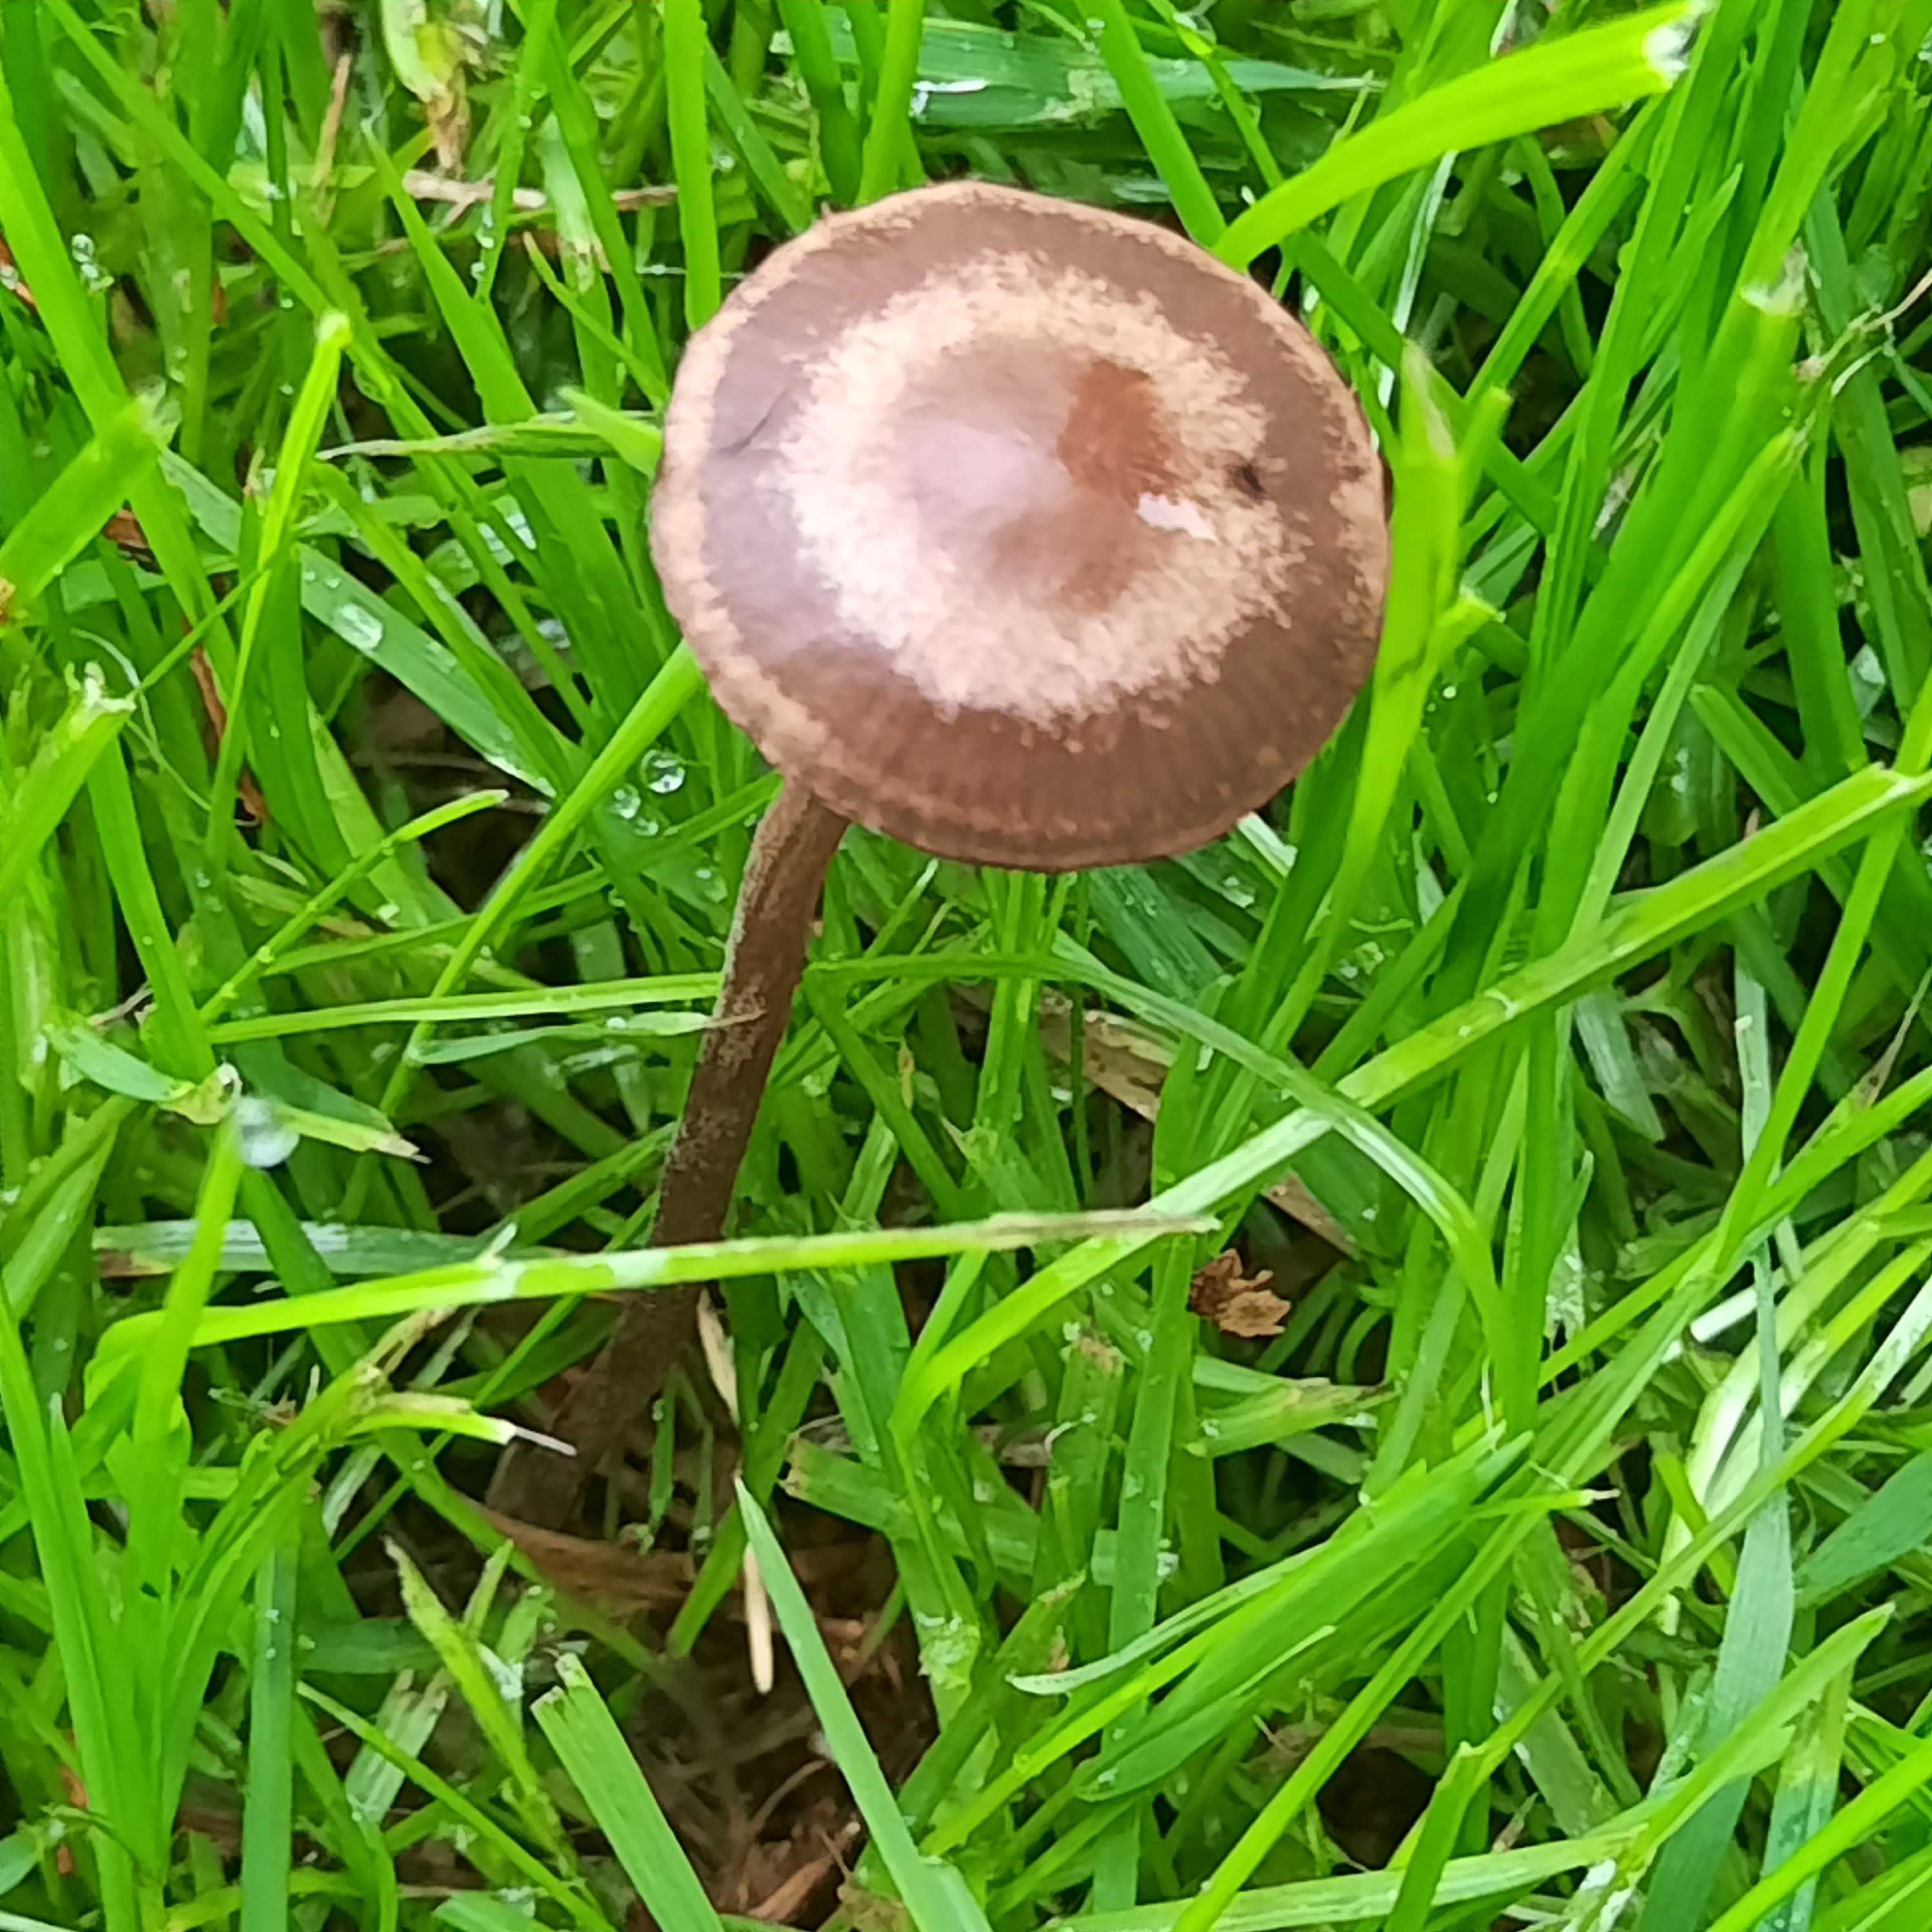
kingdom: Fungi
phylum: Basidiomycota
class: Agaricomycetes
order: Agaricales
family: Bolbitiaceae
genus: Panaeolina
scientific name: Panaeolina foenisecii
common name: høslætsvamp
